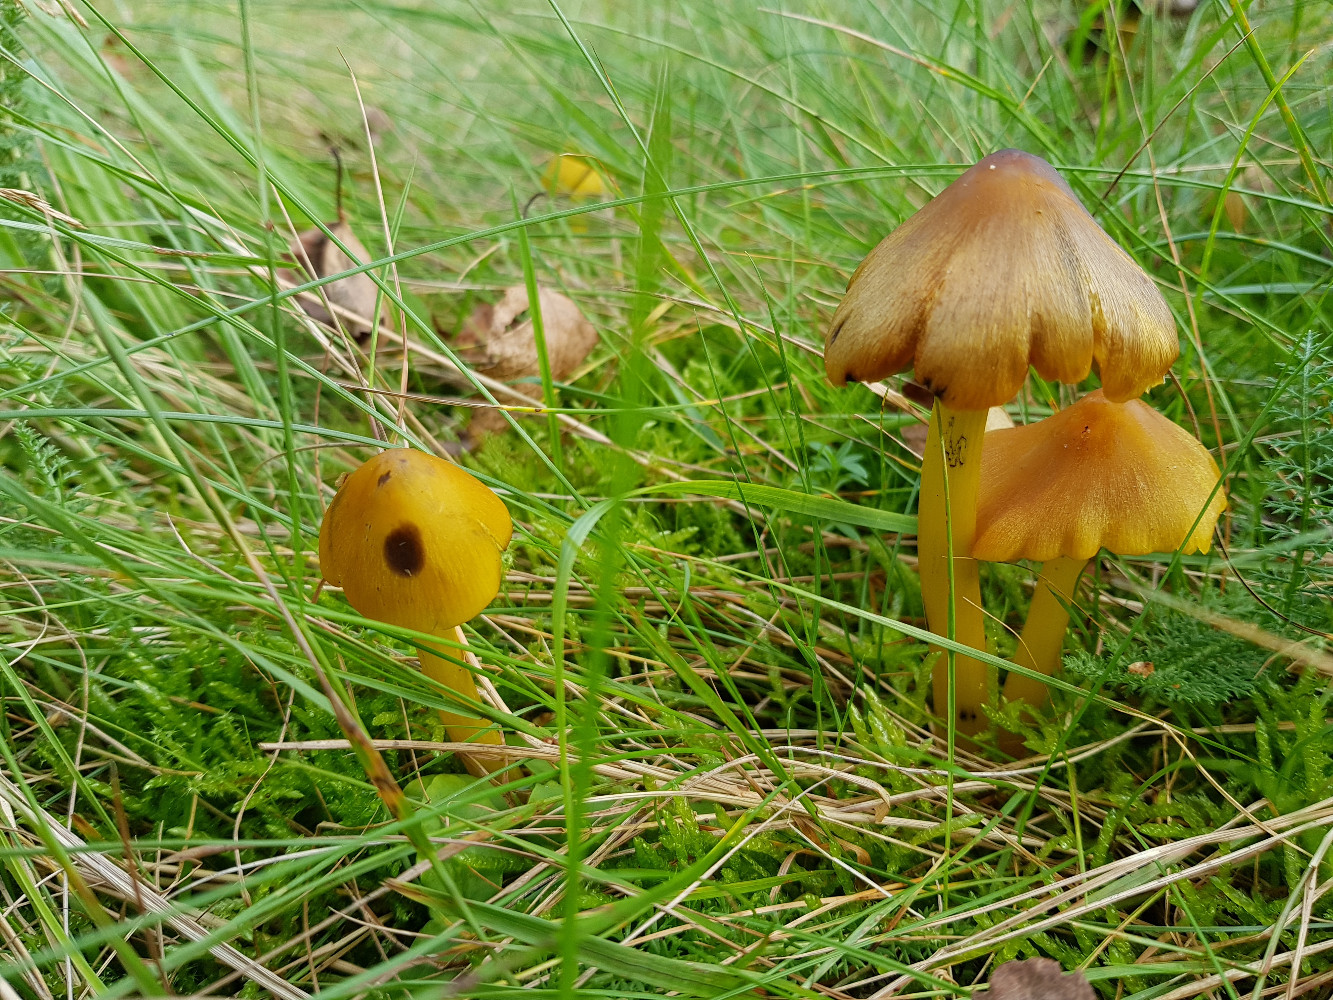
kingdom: Fungi
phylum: Basidiomycota
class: Agaricomycetes
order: Agaricales
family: Hygrophoraceae
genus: Hygrocybe
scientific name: Hygrocybe conica
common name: kegle-vokshat
